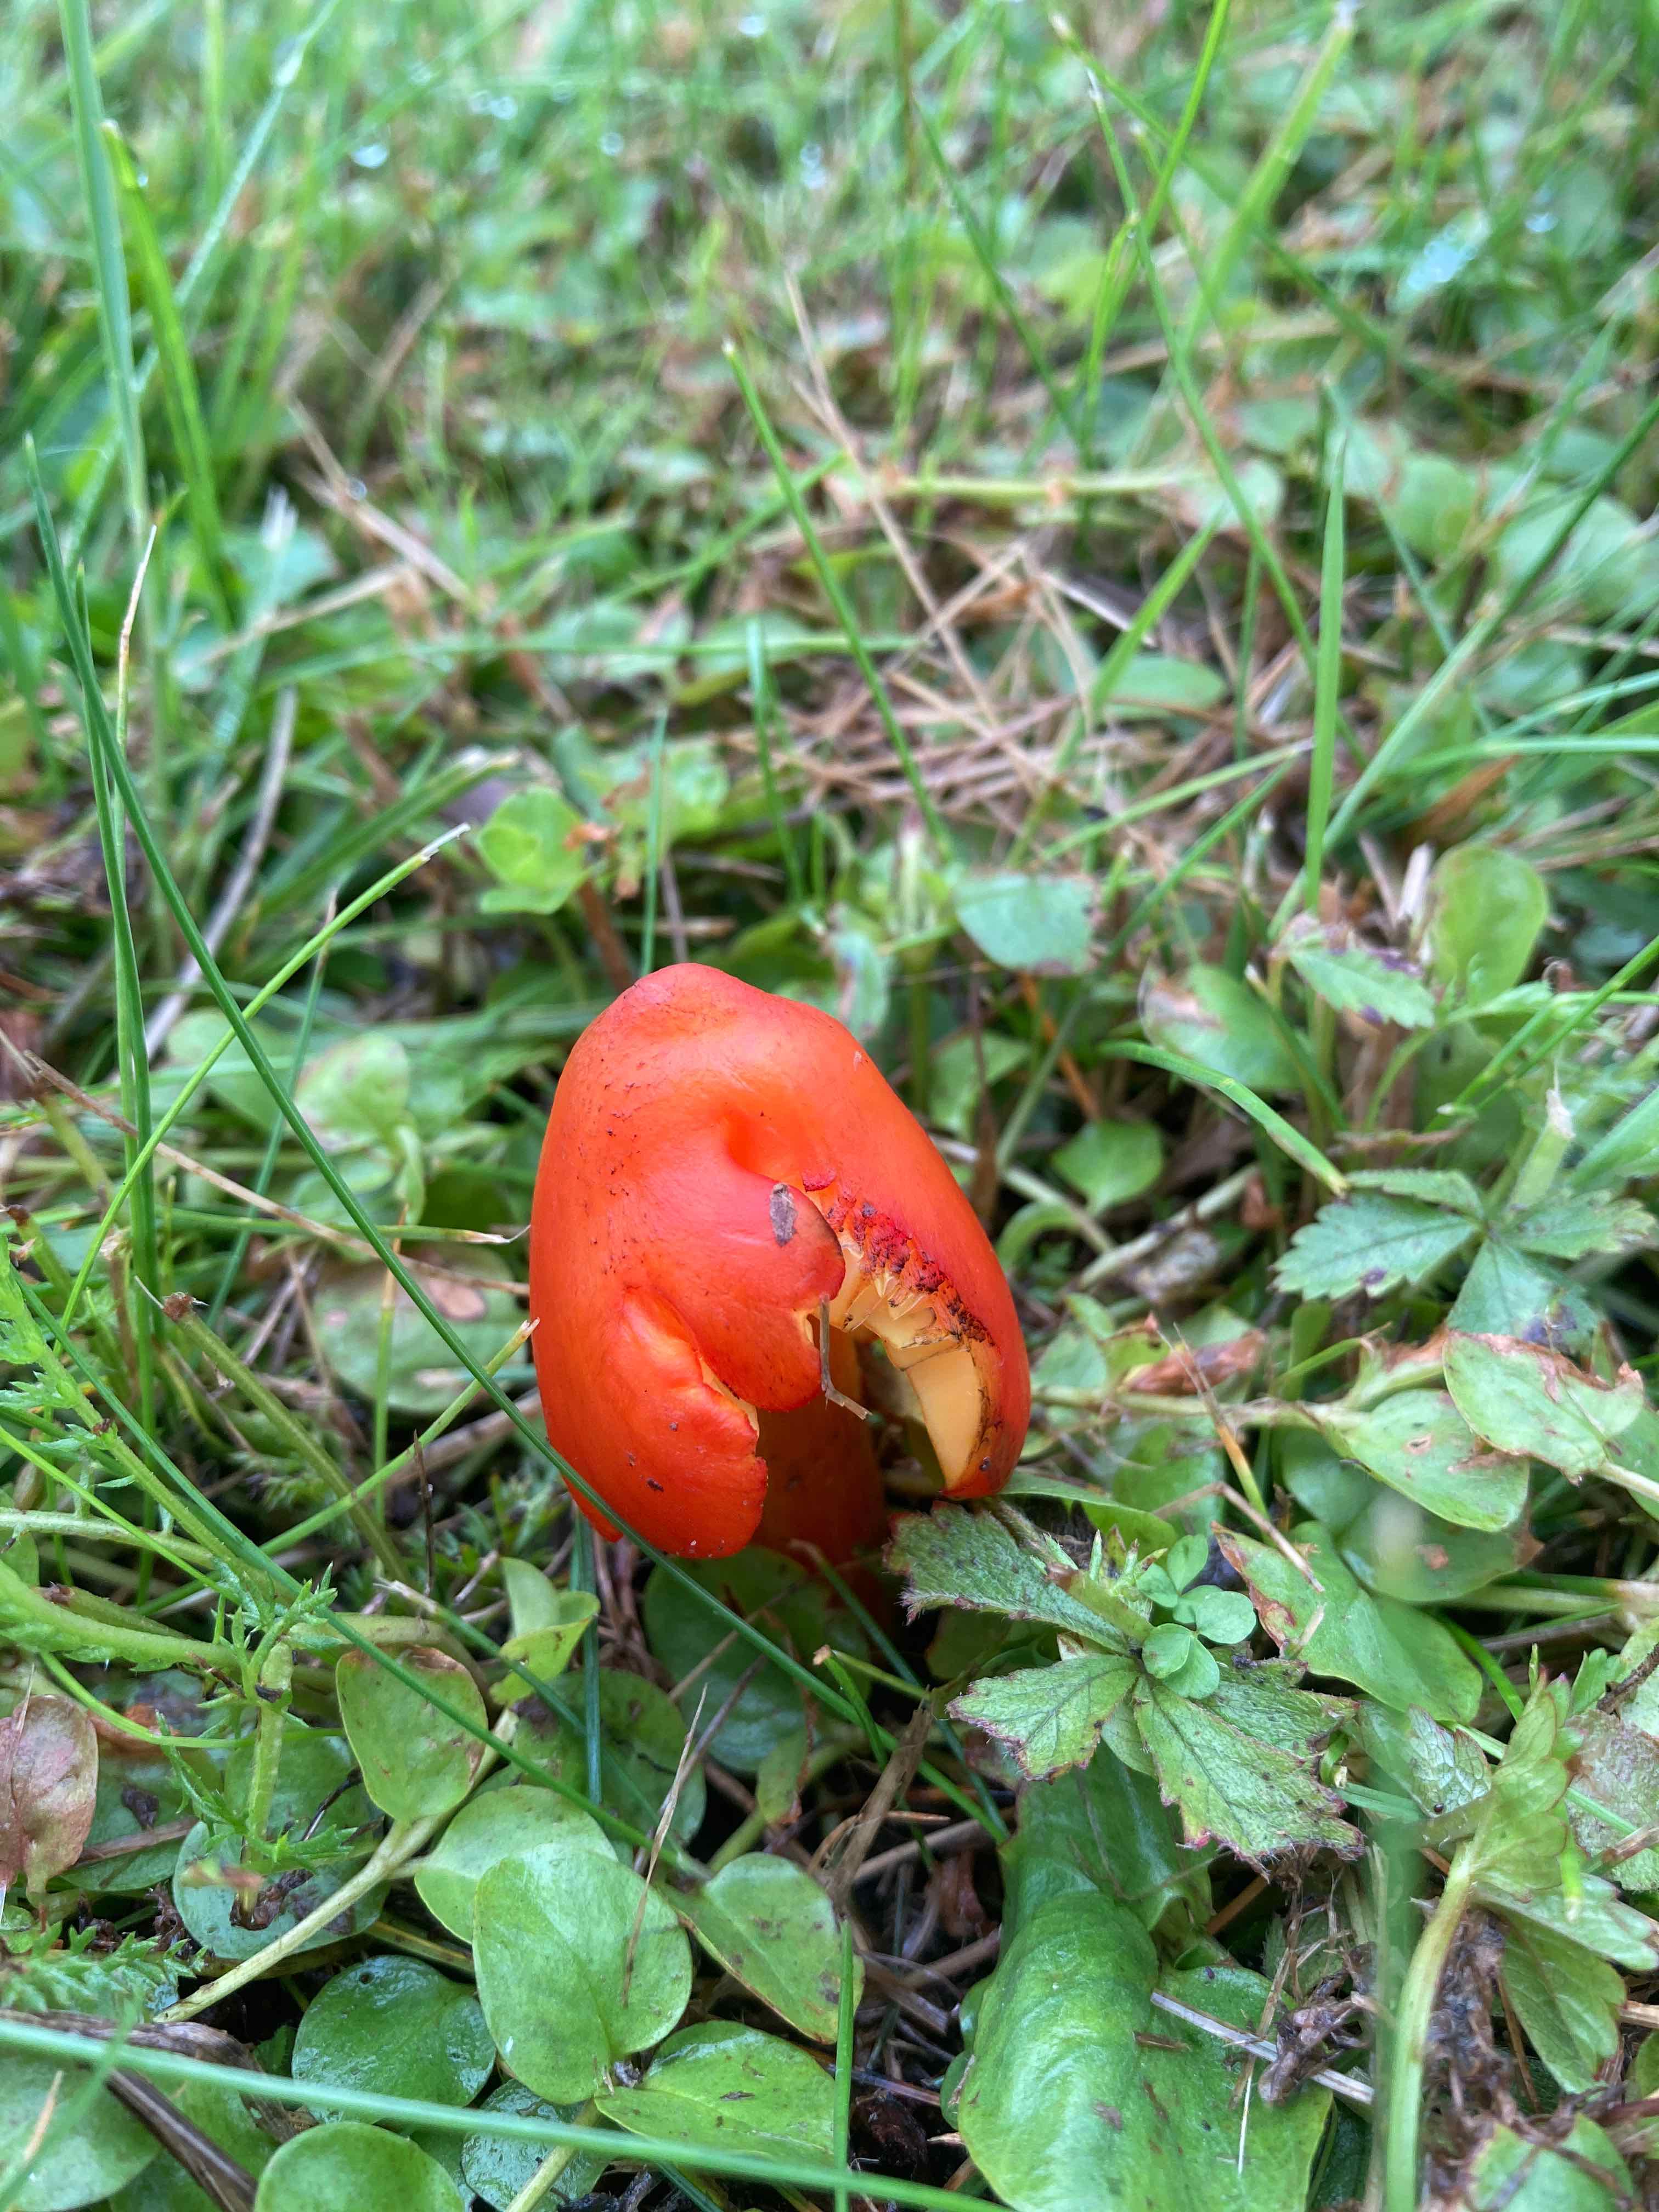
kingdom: Fungi
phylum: Basidiomycota
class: Agaricomycetes
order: Agaricales
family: Hygrophoraceae
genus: Hygrocybe
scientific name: Hygrocybe conica
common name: kegle-vokshat
